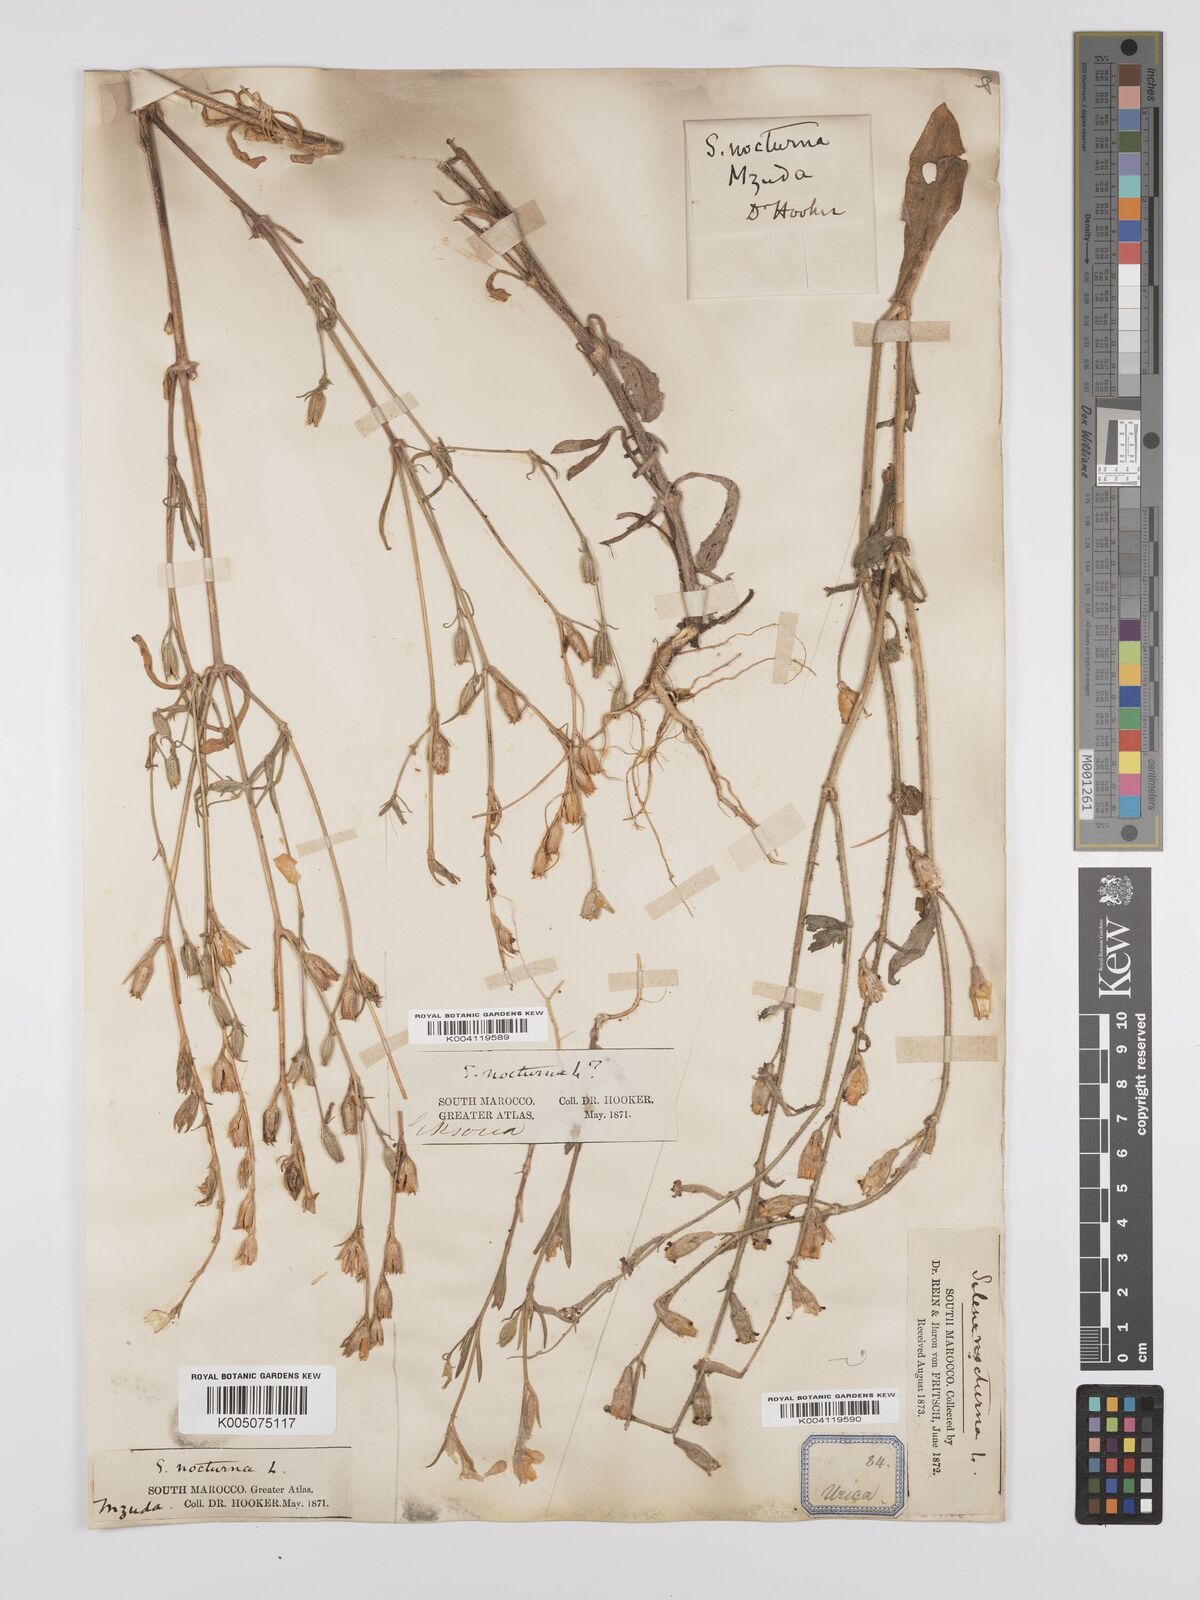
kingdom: Plantae
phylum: Tracheophyta
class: Magnoliopsida
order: Caryophyllales
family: Caryophyllaceae
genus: Silene
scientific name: Silene nocturna
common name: Mediterranean catchfly
